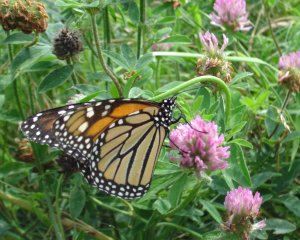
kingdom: Animalia
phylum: Arthropoda
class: Insecta
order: Lepidoptera
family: Nymphalidae
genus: Danaus
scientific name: Danaus plexippus
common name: Monarch
